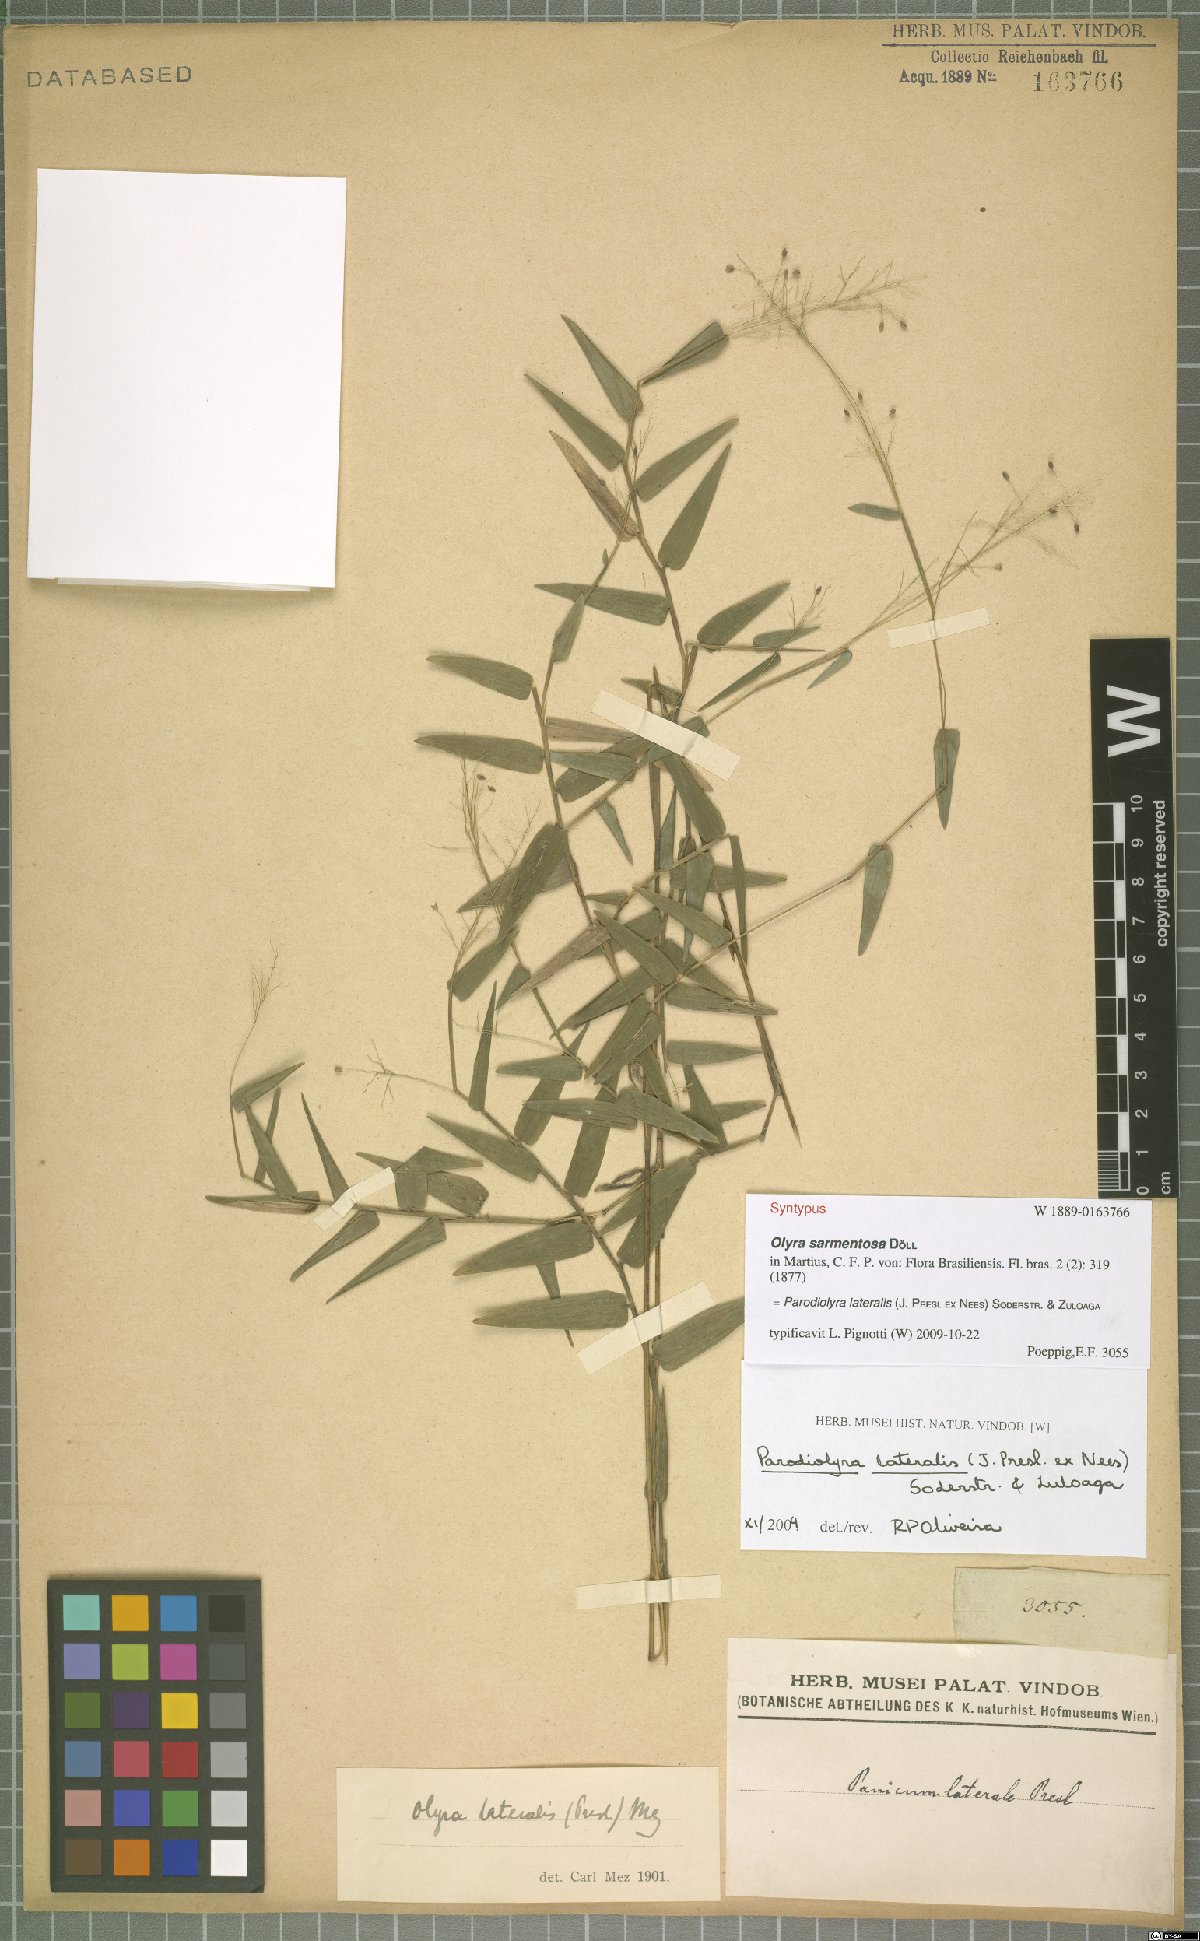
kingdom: Plantae
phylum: Tracheophyta
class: Liliopsida
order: Poales
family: Poaceae
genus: Parodiolyra
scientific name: Parodiolyra lateralis
